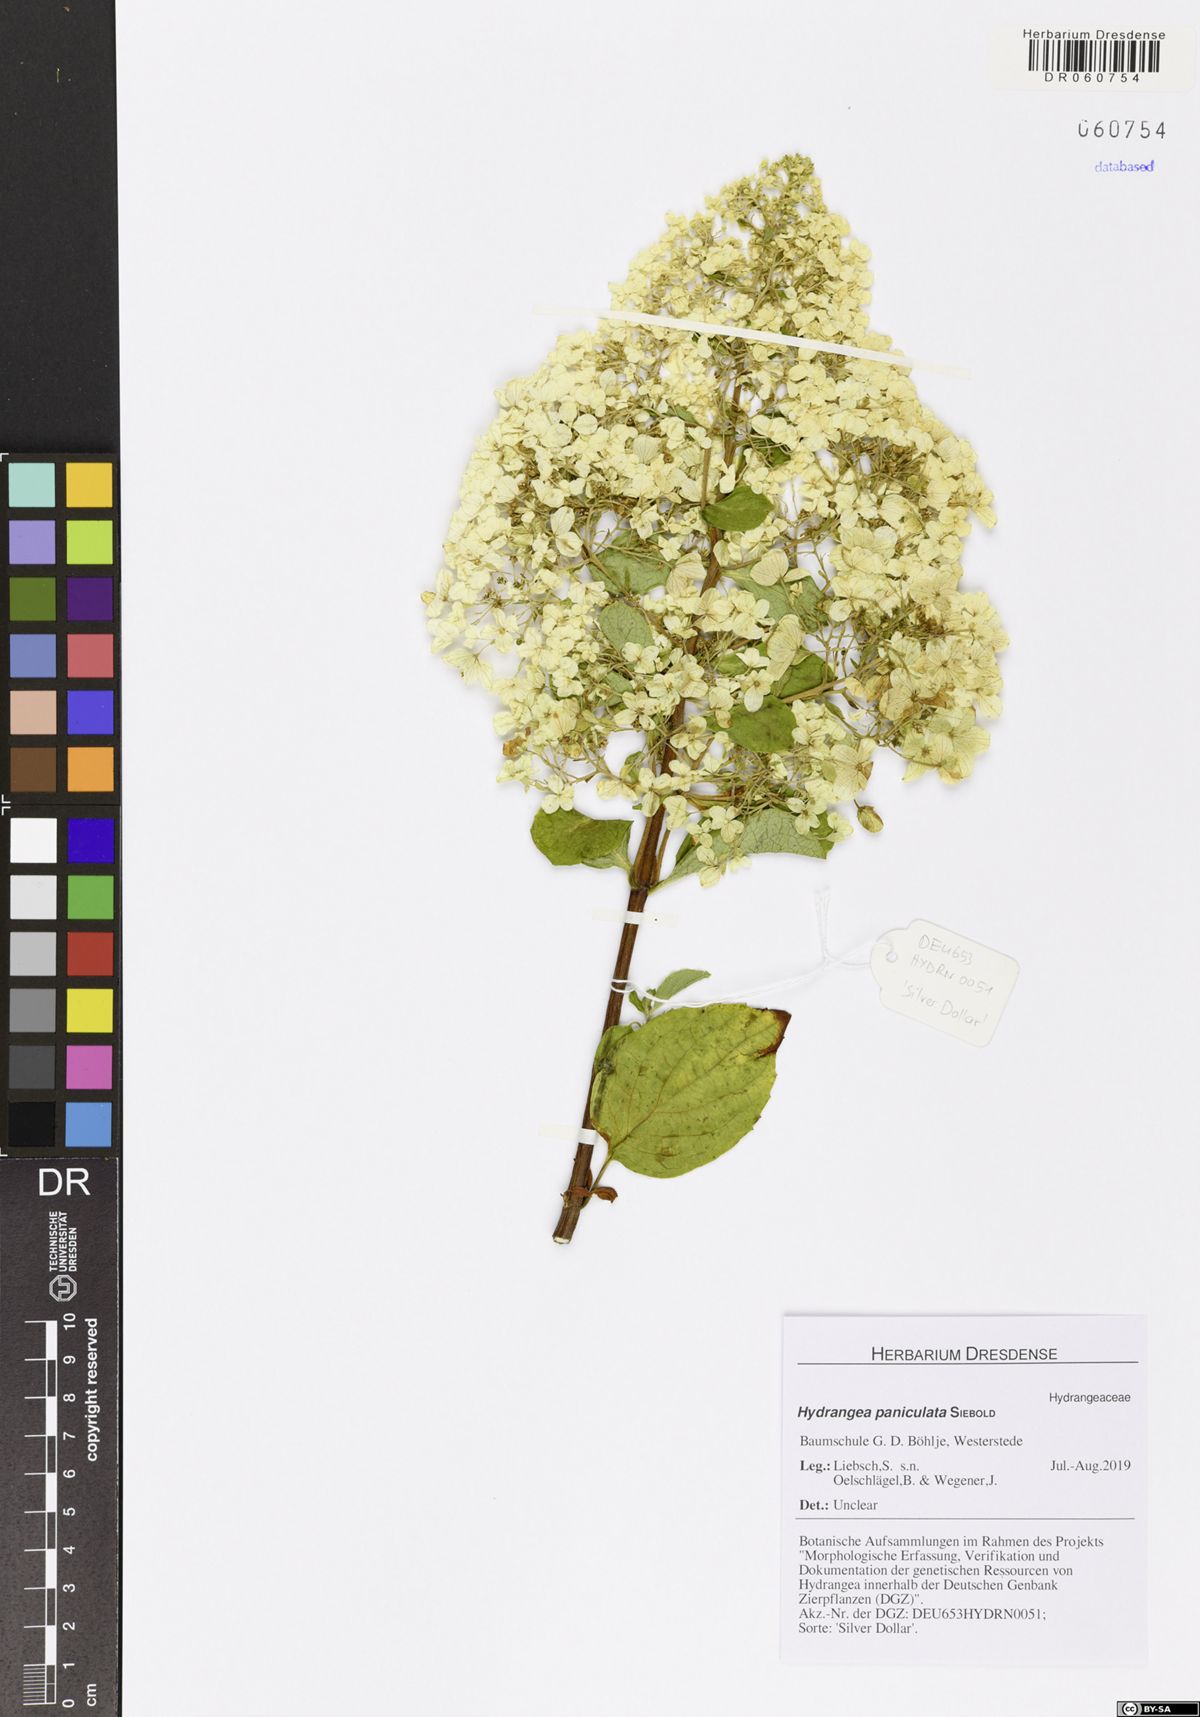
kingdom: Plantae
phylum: Tracheophyta
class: Magnoliopsida
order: Cornales
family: Hydrangeaceae
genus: Hydrangea
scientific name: Hydrangea paniculata
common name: Panicled hydrangea
